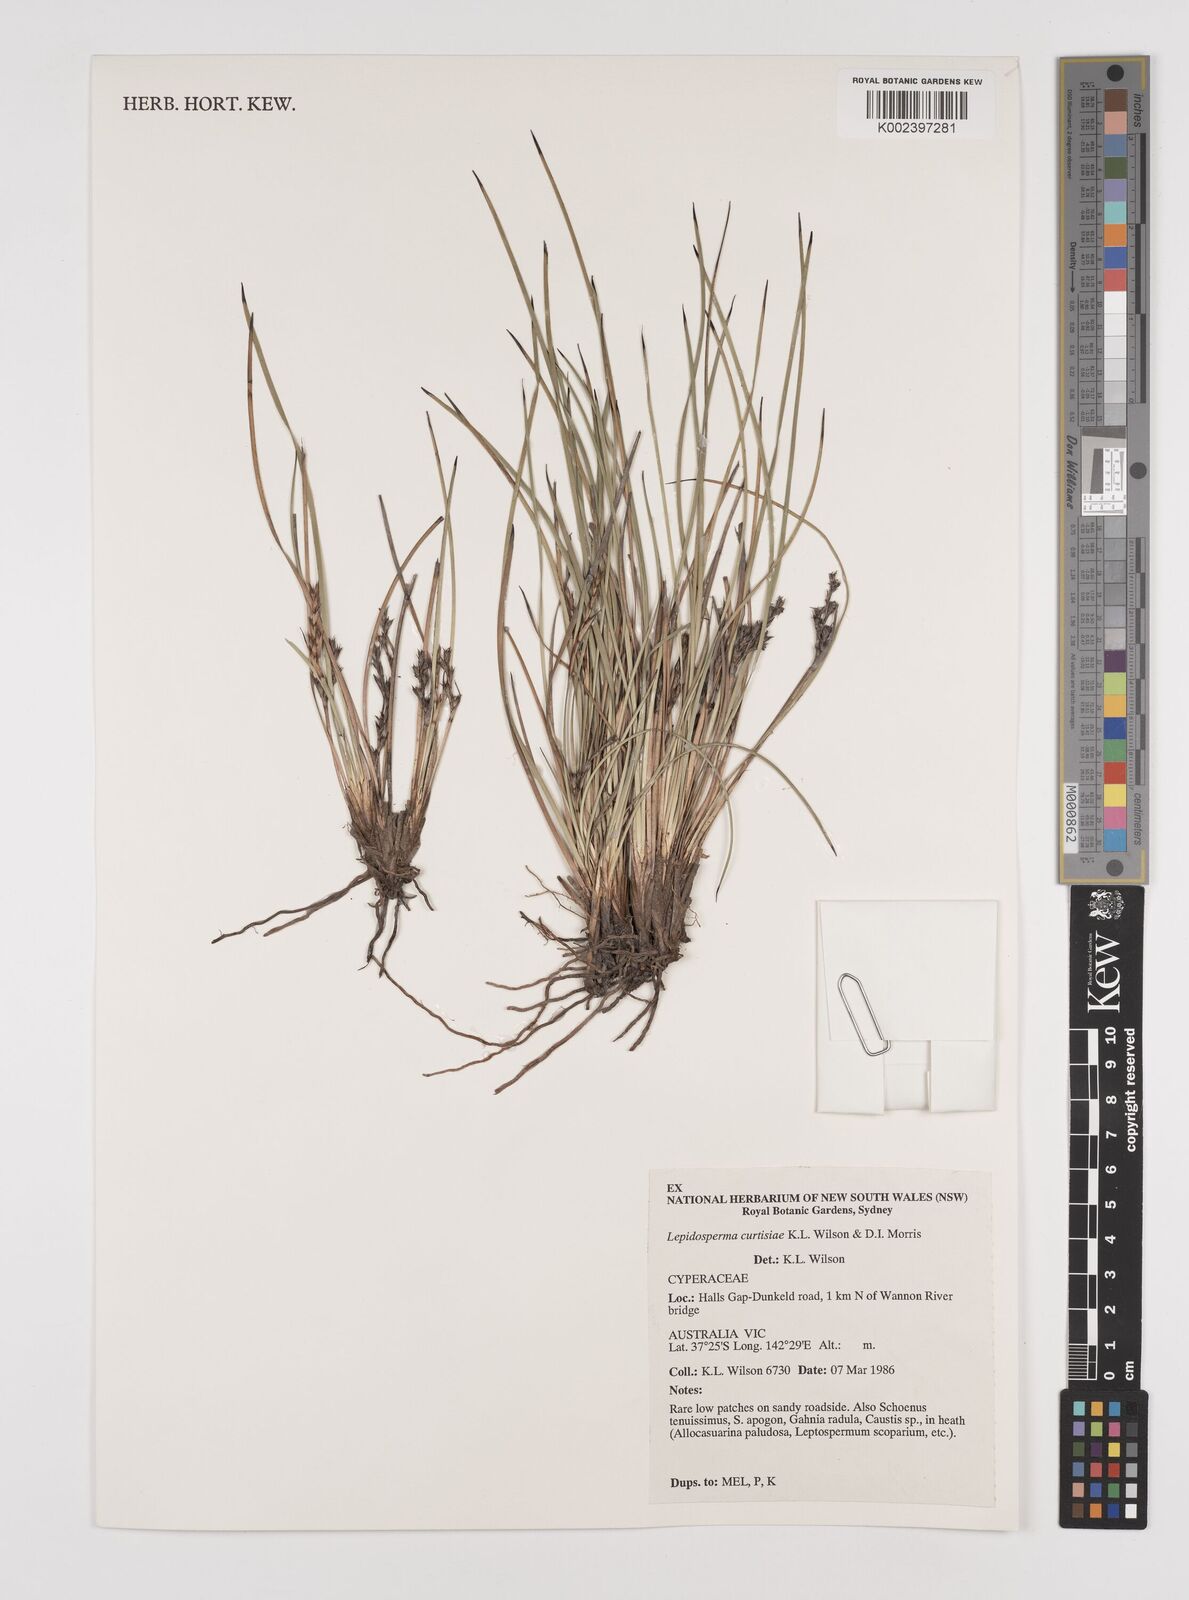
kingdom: Plantae
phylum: Tracheophyta
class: Liliopsida
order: Poales
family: Cyperaceae
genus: Lepidosperma
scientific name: Lepidosperma curtisiae
